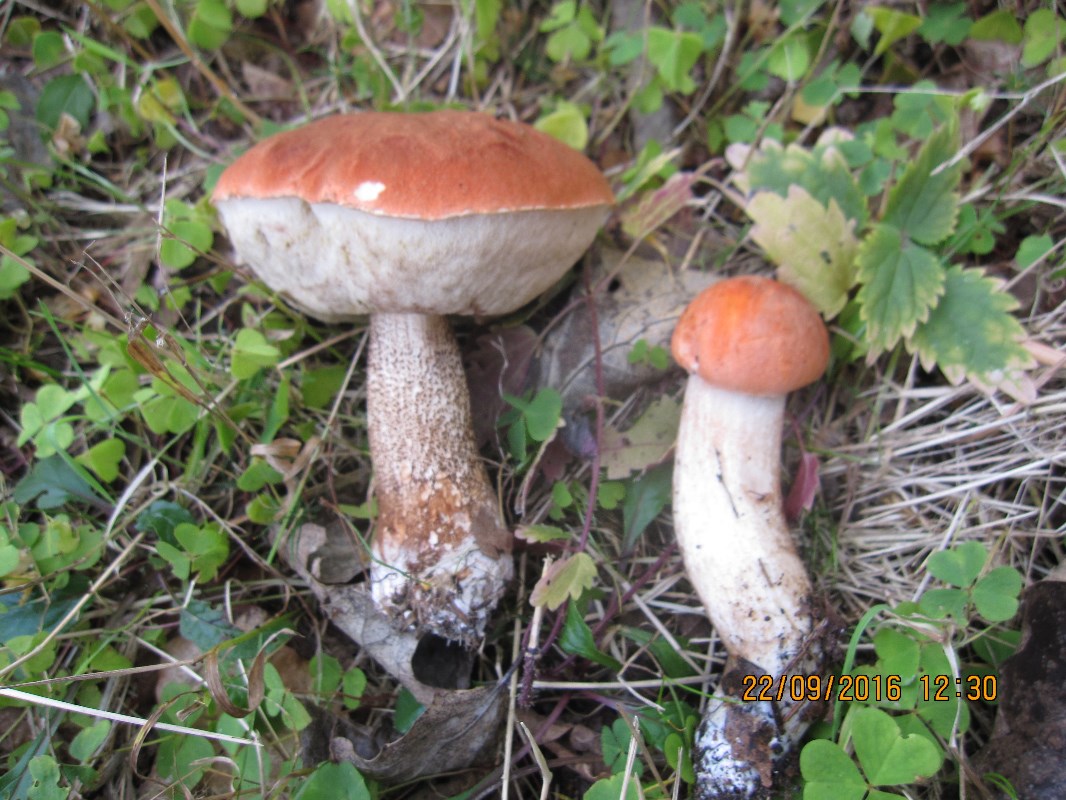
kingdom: Fungi
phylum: Basidiomycota
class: Agaricomycetes
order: Boletales
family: Boletaceae
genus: Leccinum
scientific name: Leccinum aurantiacum
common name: rustrød skælrørhat
